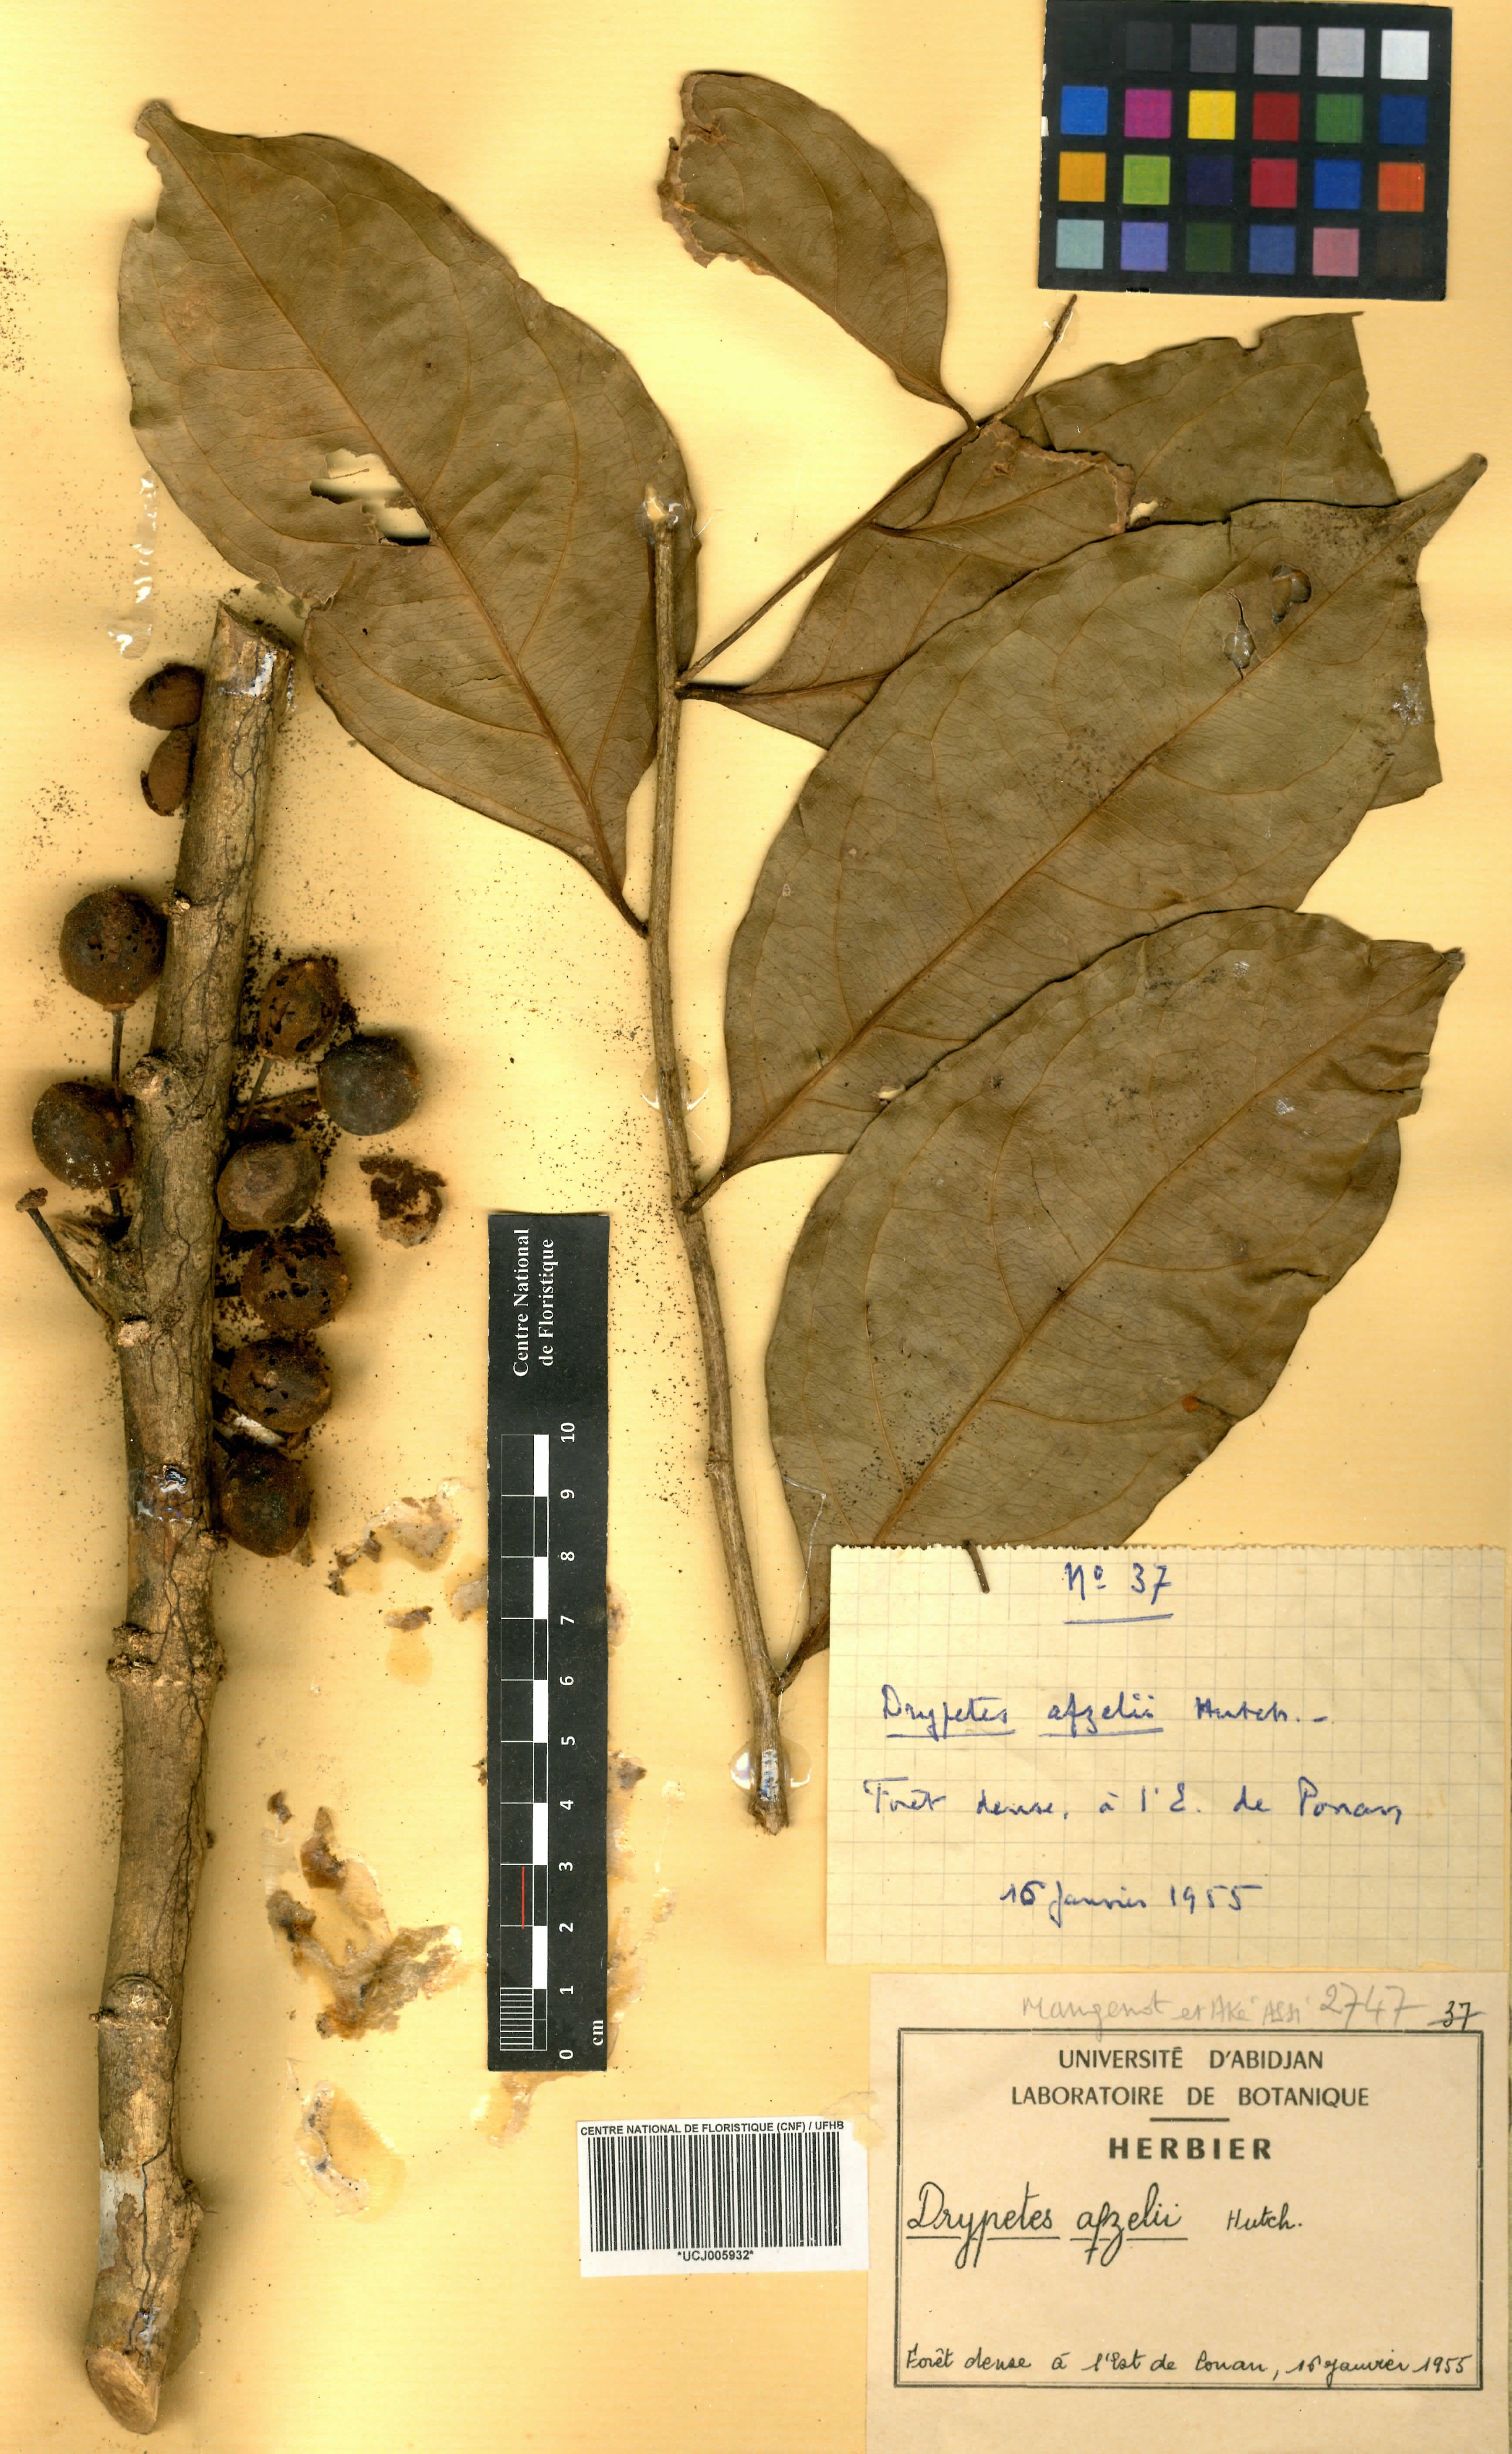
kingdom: Plantae
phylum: Tracheophyta
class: Magnoliopsida
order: Malpighiales
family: Putranjivaceae
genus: Drypetes
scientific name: Drypetes afzelii
